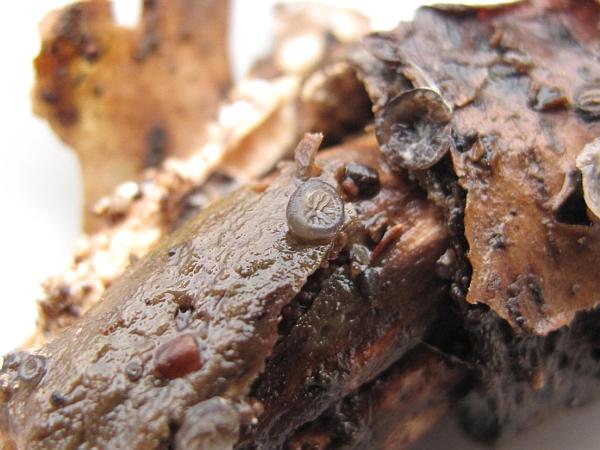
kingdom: Fungi
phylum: Basidiomycota
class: Agaricomycetes
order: Agaricales
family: Pleurotaceae
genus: Resupinatus
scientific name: Resupinatus applicatus
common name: lysfiltet barkhat
